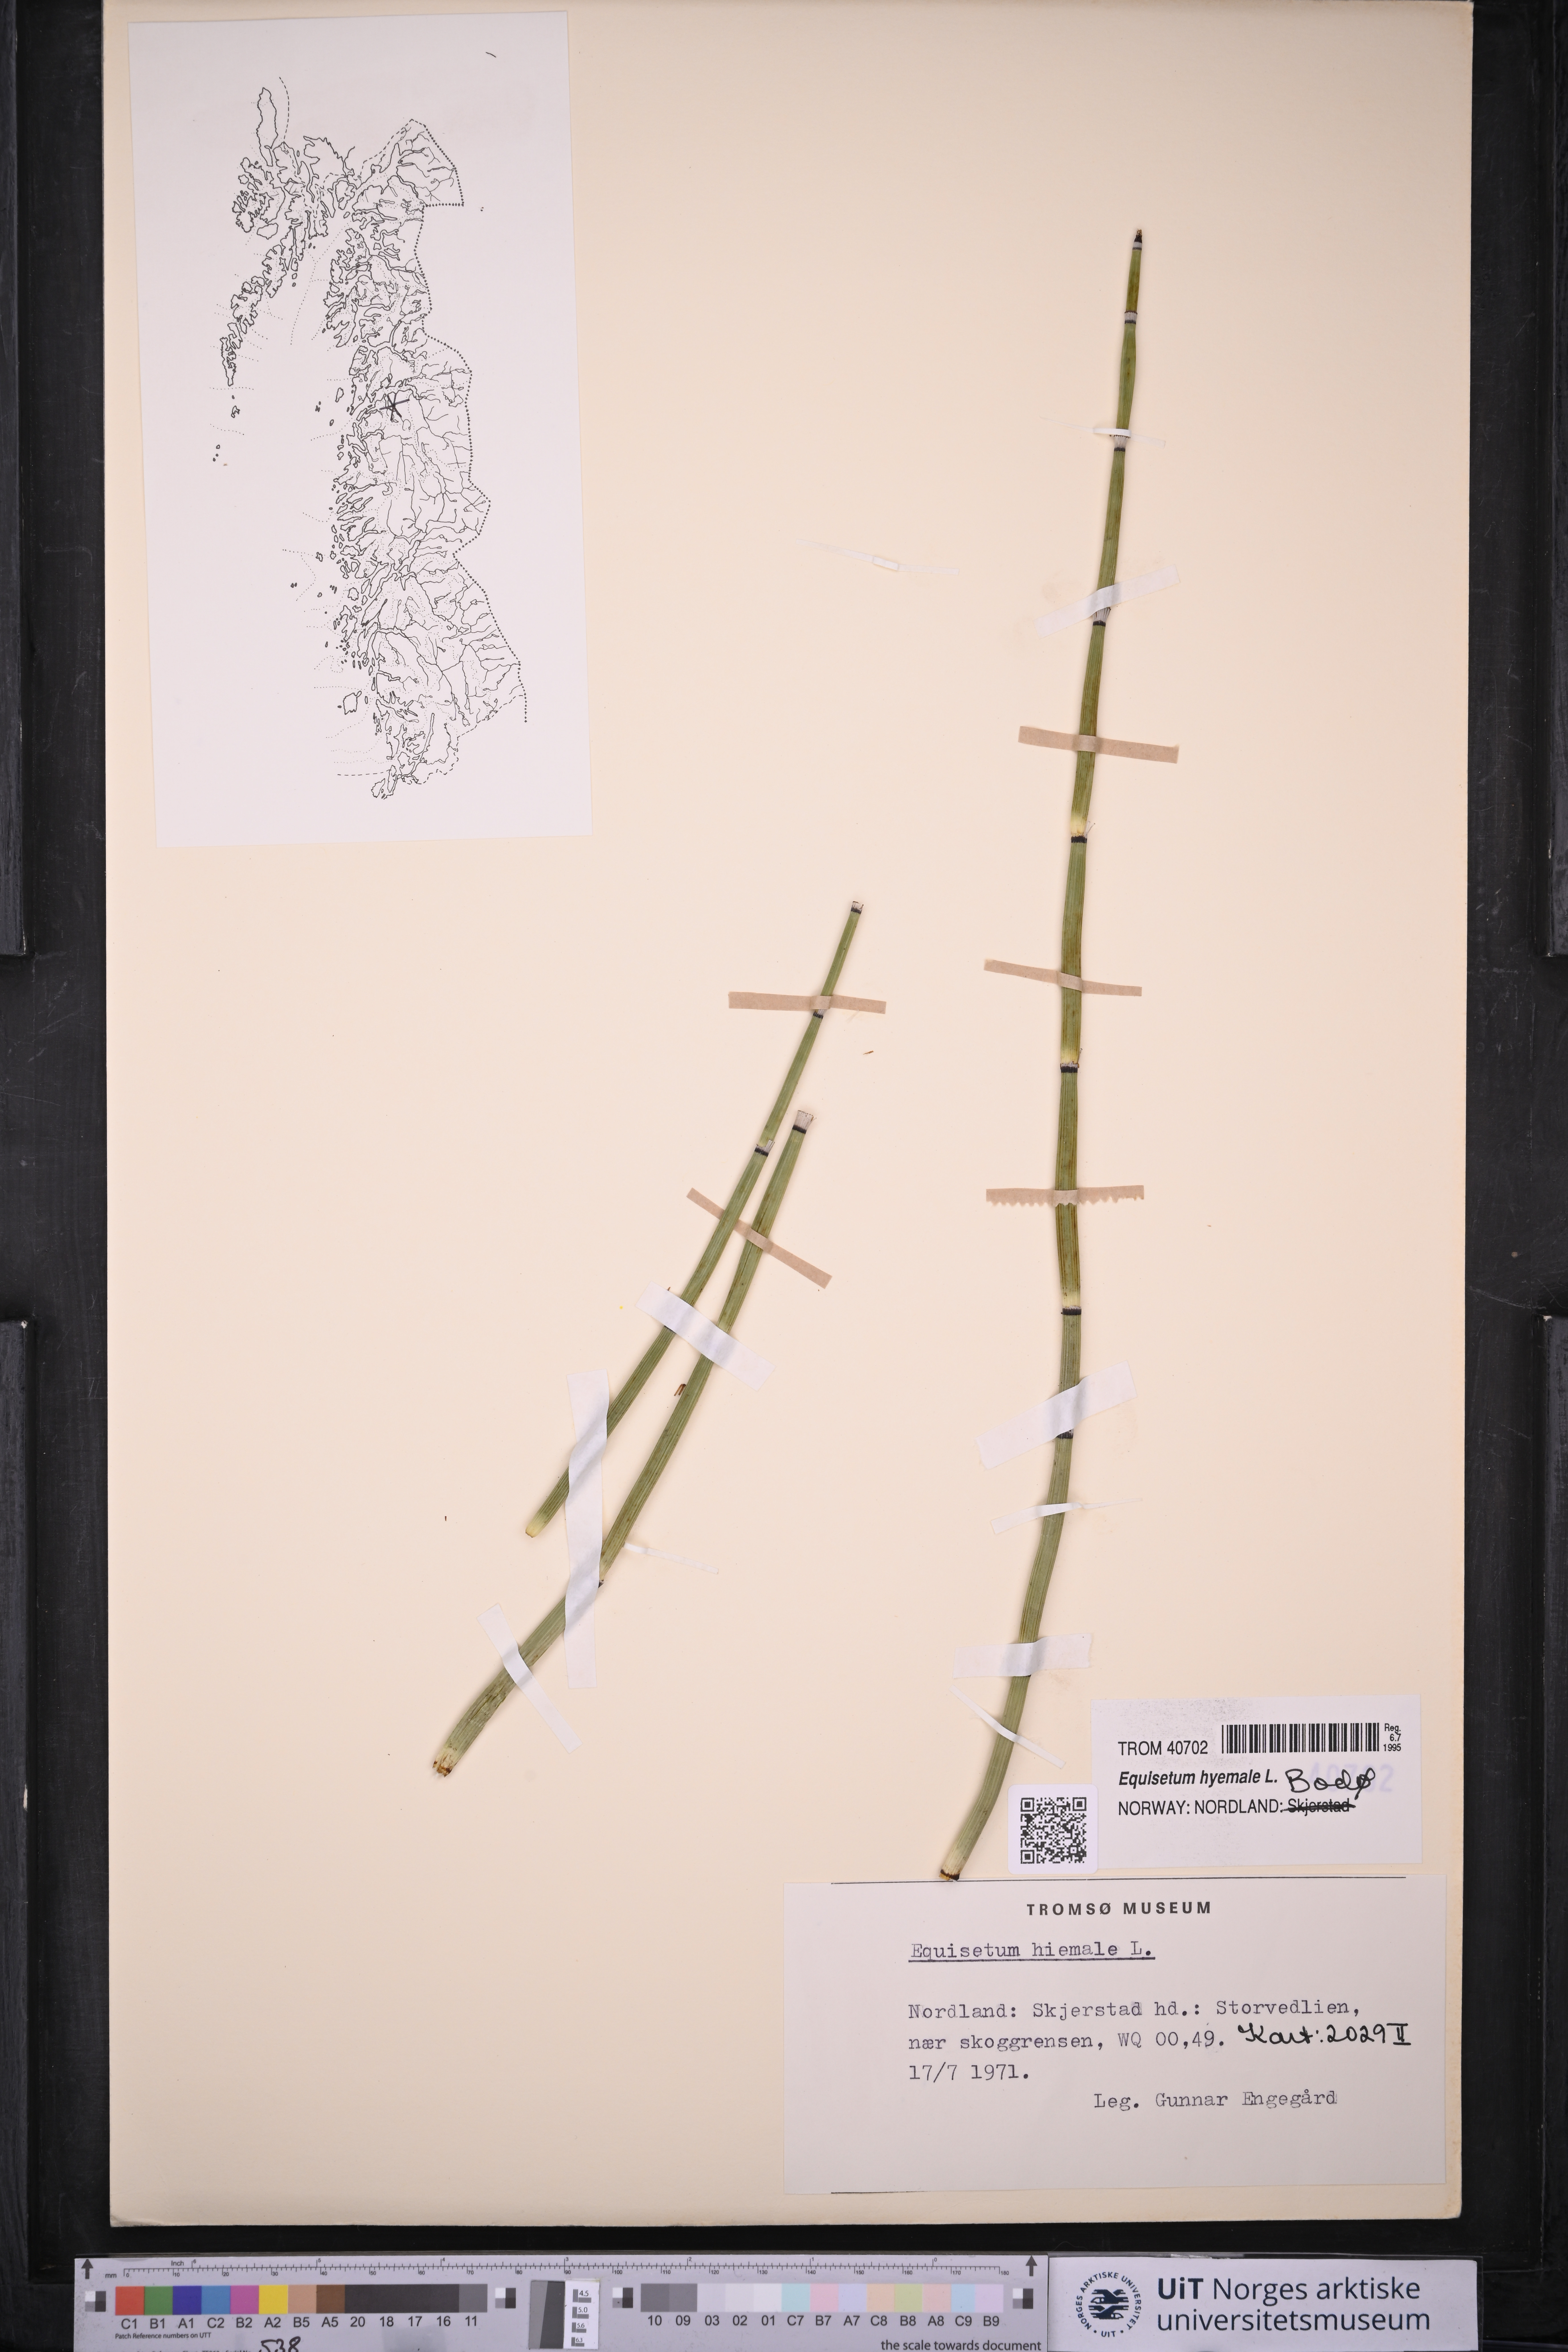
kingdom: Plantae
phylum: Tracheophyta
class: Polypodiopsida
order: Equisetales
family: Equisetaceae
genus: Equisetum
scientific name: Equisetum hyemale
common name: Rough horsetail
